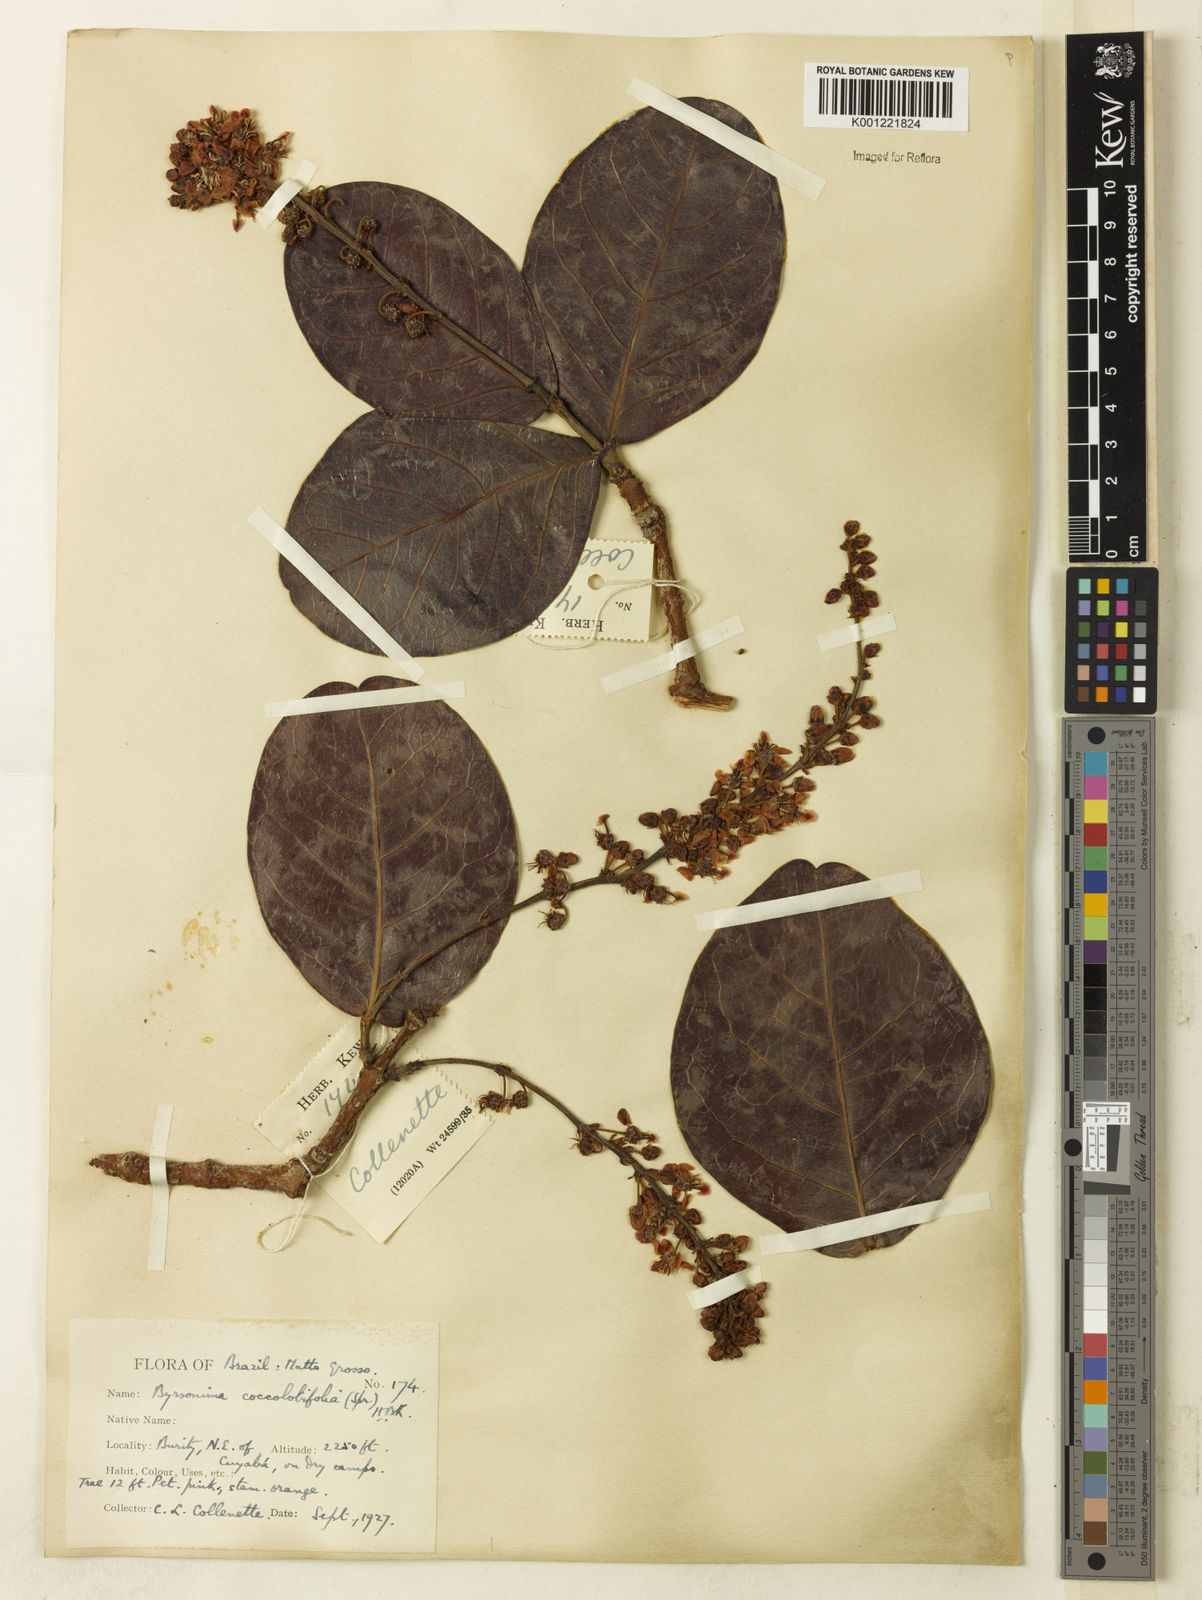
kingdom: Plantae
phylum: Tracheophyta
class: Magnoliopsida
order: Malpighiales
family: Malpighiaceae
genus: Byrsonima
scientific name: Byrsonima coccolobifolia
